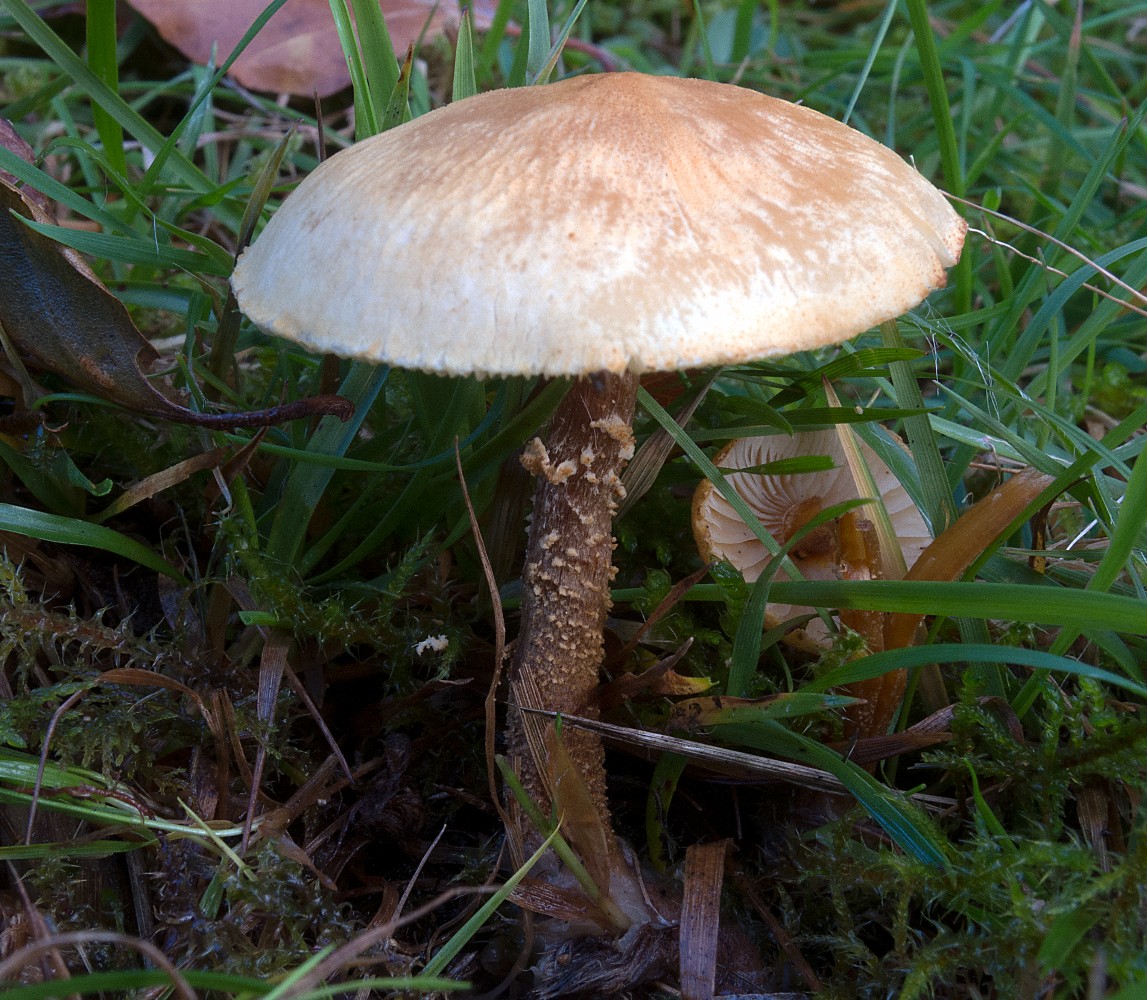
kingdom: Fungi
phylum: Basidiomycota
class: Agaricomycetes
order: Agaricales
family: Tricholomataceae
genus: Cystoderma
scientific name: Cystoderma amianthinum
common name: okkergul grynhat
